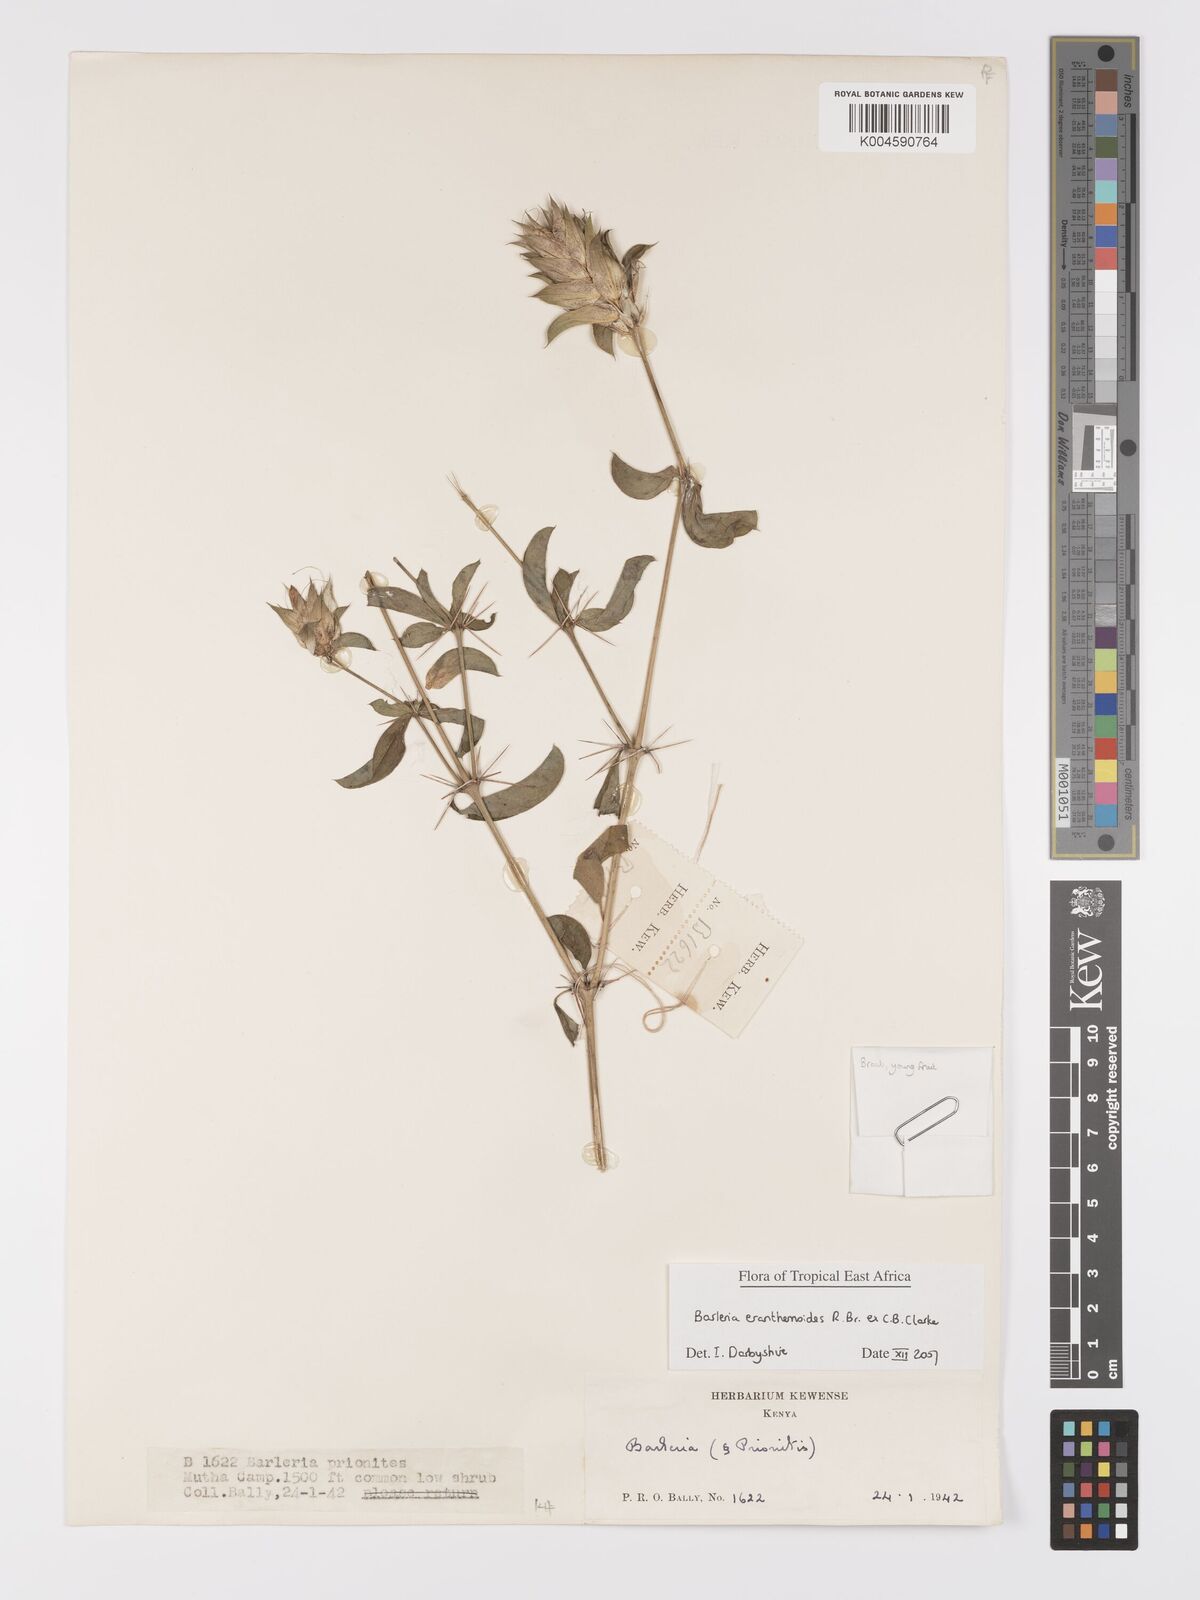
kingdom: Plantae
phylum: Tracheophyta
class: Magnoliopsida
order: Lamiales
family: Acanthaceae
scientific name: Acanthaceae
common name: Acanthaceae
